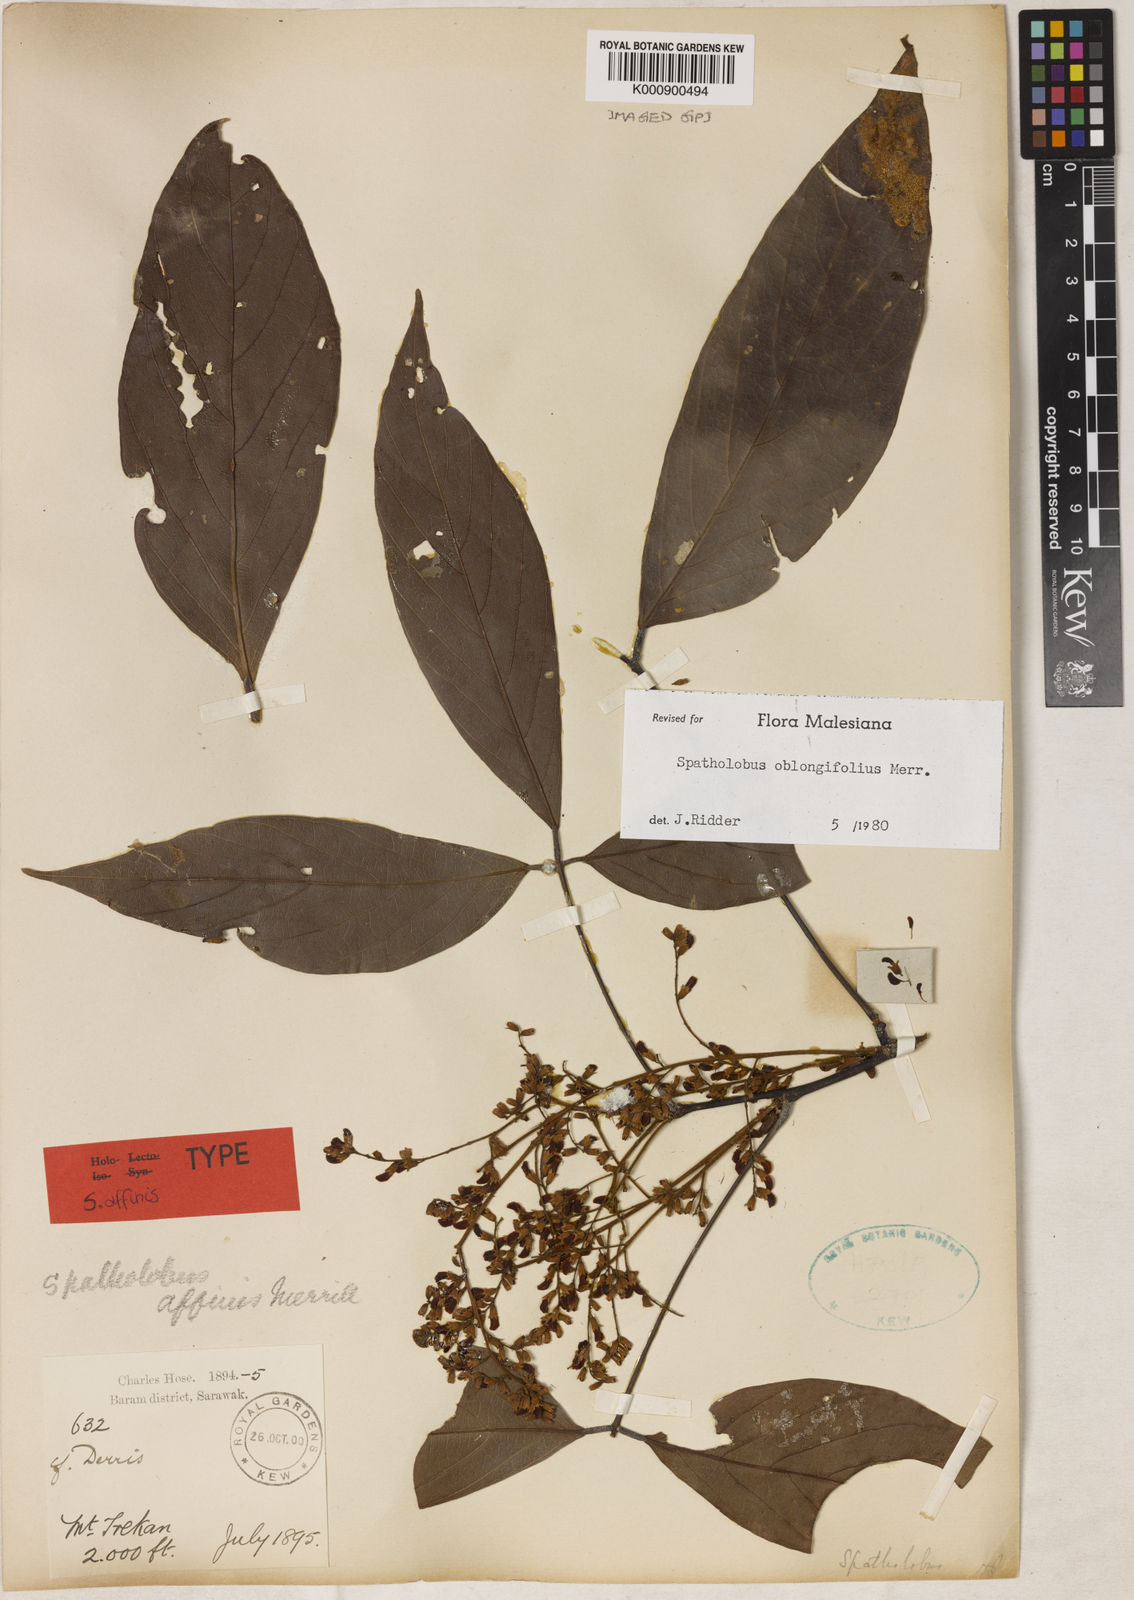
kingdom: Plantae
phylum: Tracheophyta
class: Magnoliopsida
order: Fabales
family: Fabaceae
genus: Spatholobus
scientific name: Spatholobus oblongifolius
